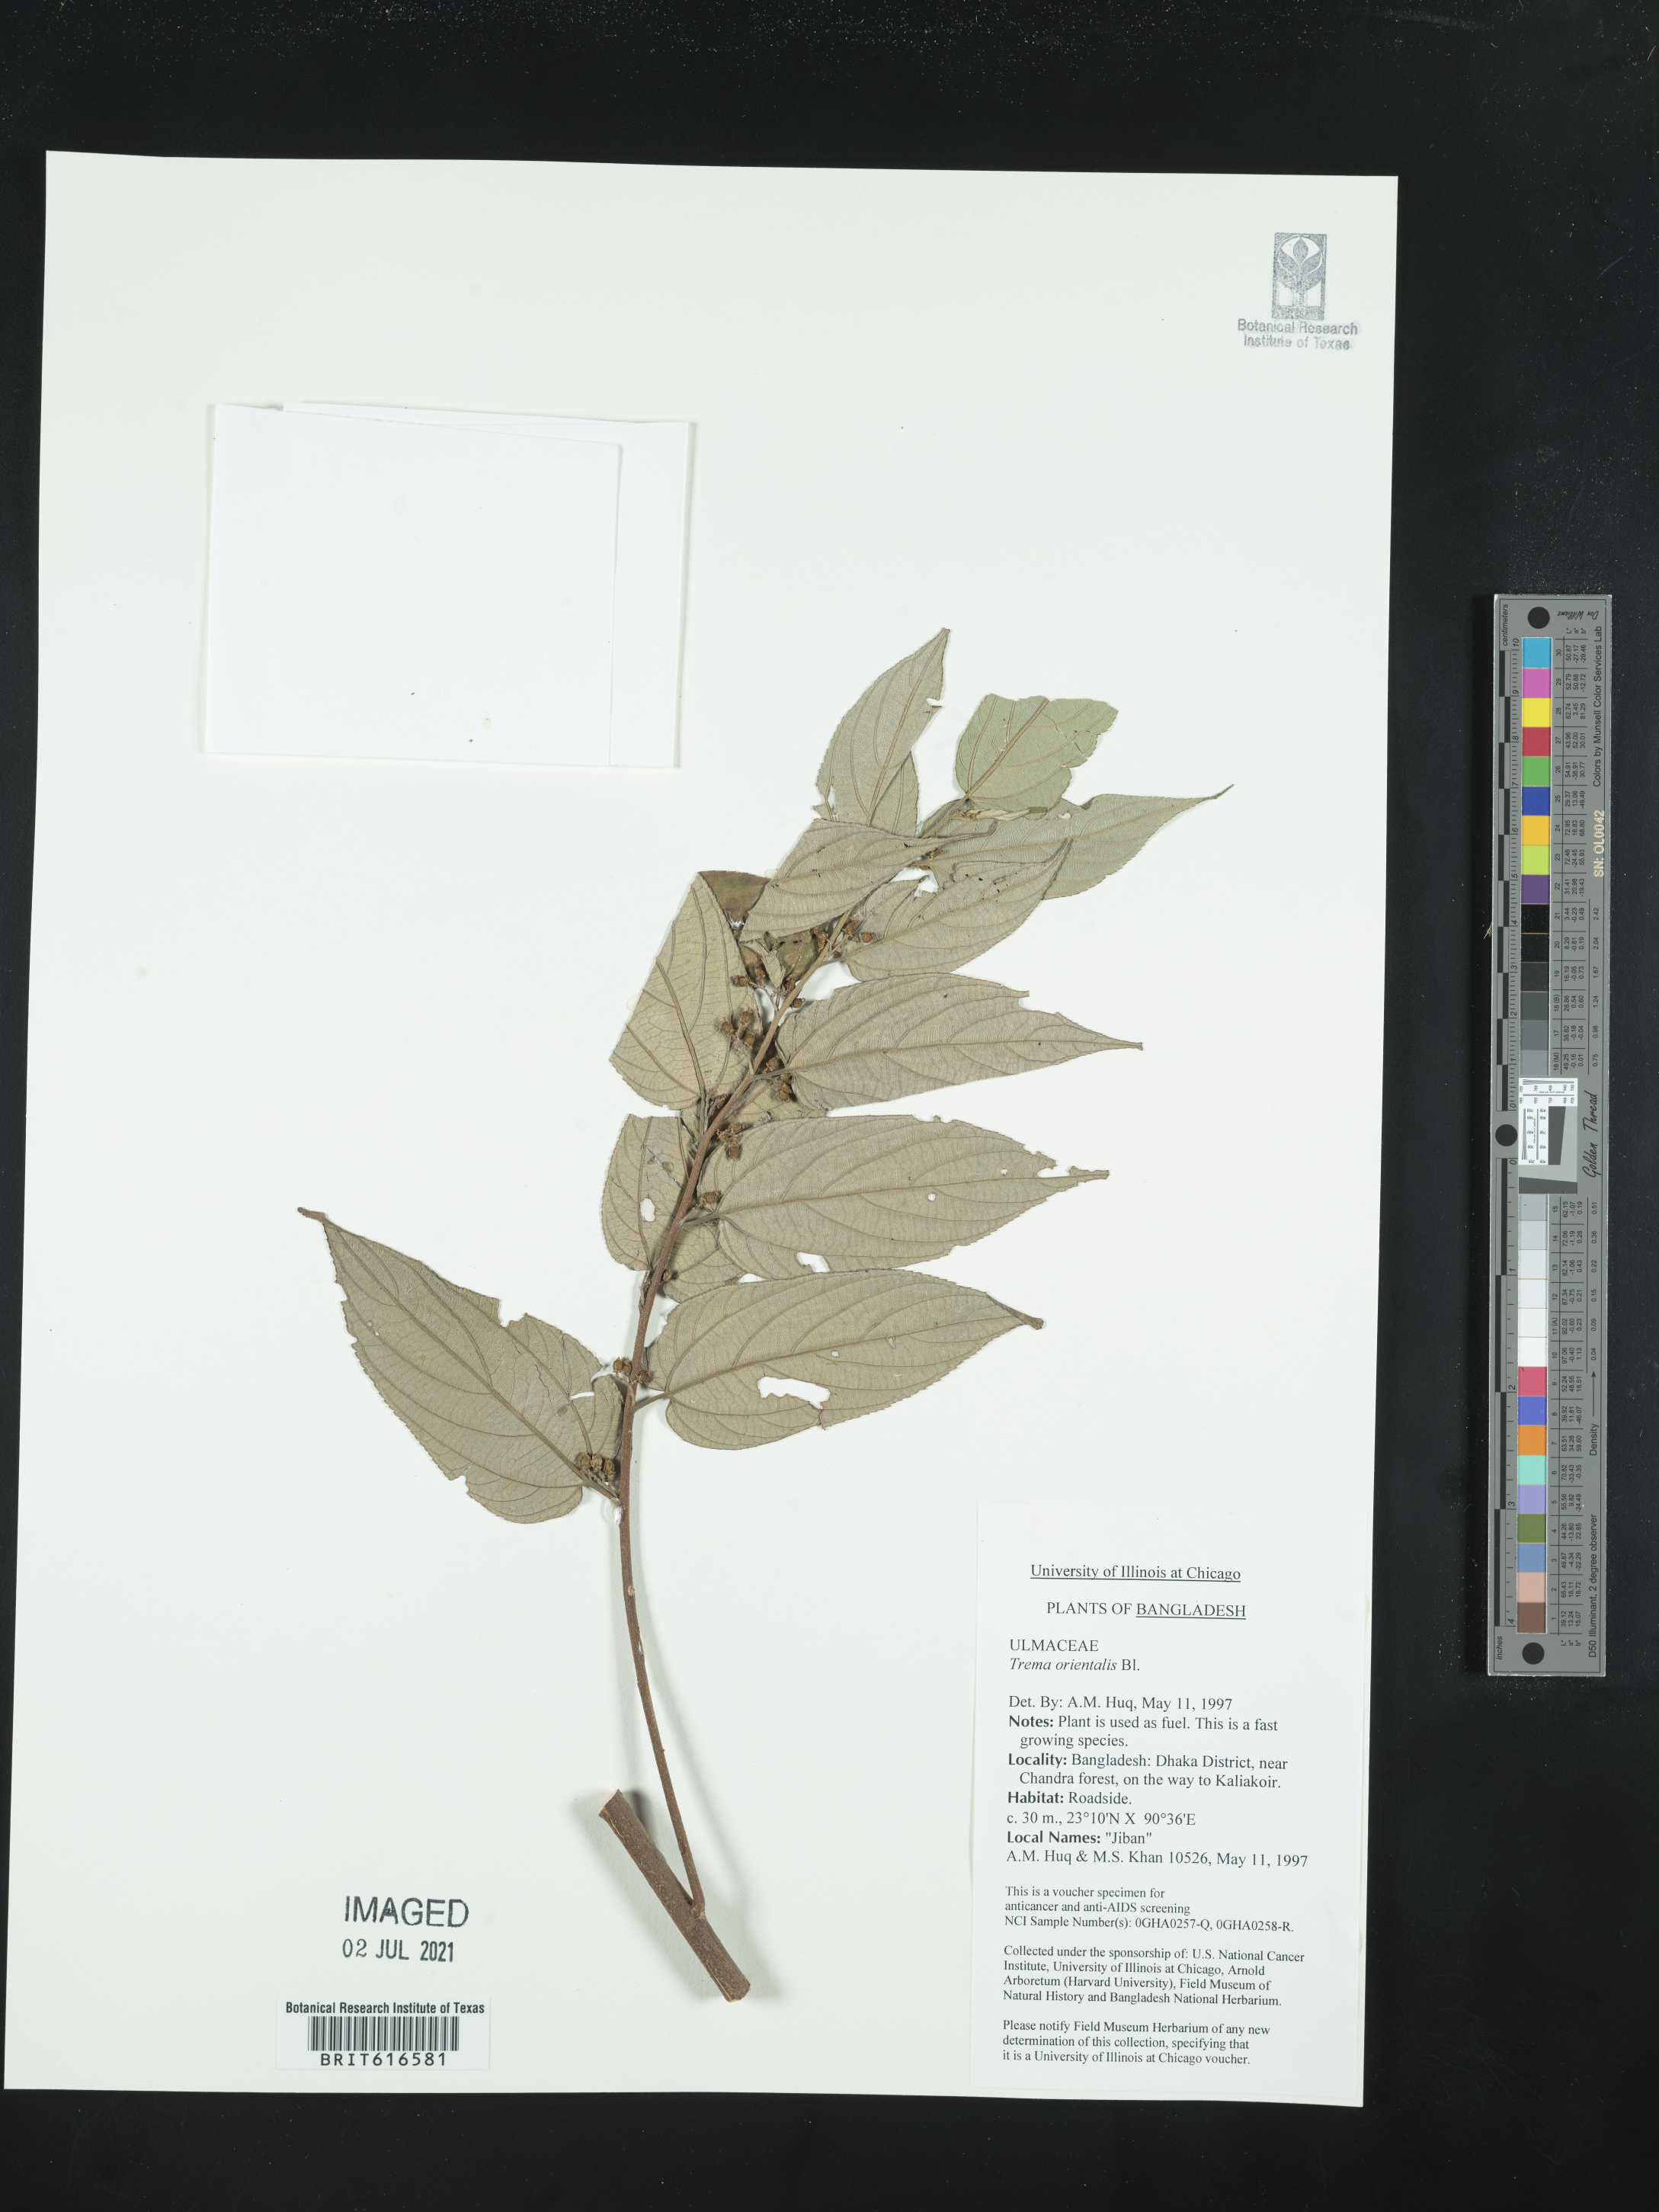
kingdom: Plantae
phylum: Tracheophyta
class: Magnoliopsida
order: Rosales
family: Cannabaceae
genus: Trema
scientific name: Trema orientale
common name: Indian charcoal tree
